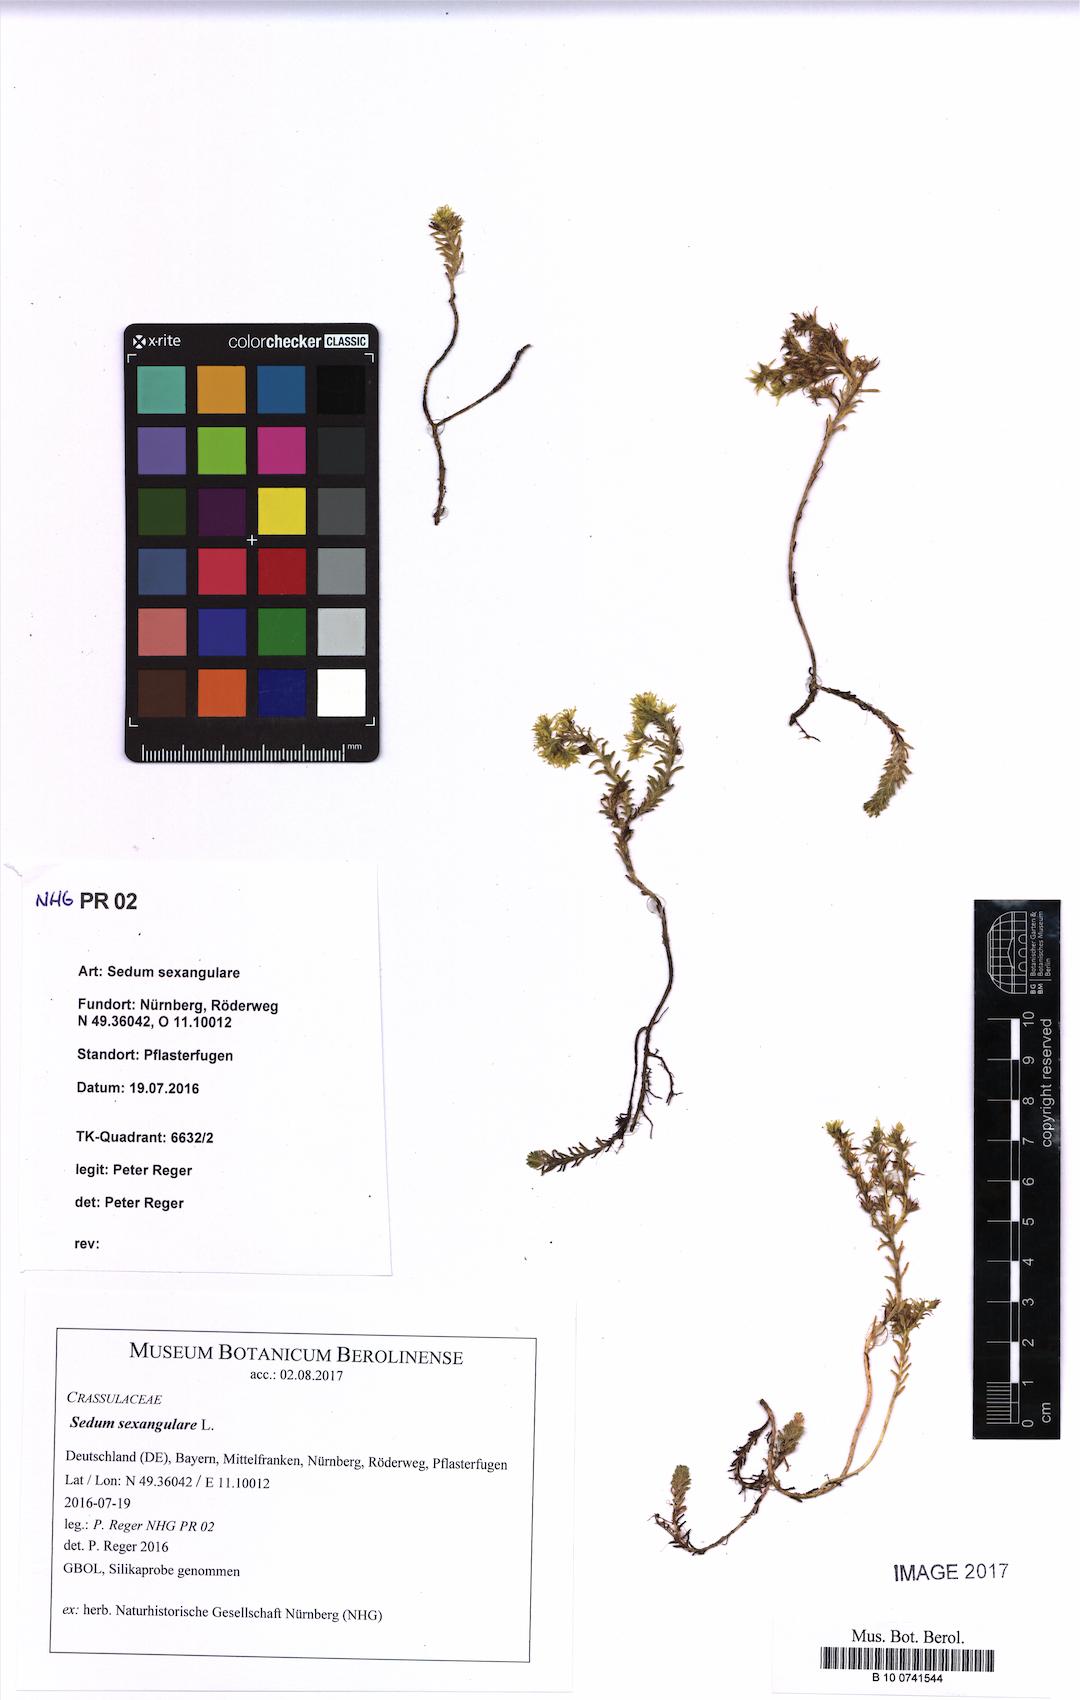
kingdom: Plantae
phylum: Tracheophyta
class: Magnoliopsida
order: Saxifragales
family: Crassulaceae
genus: Sedum
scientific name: Sedum sexangulare
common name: Tasteless stonecrop
